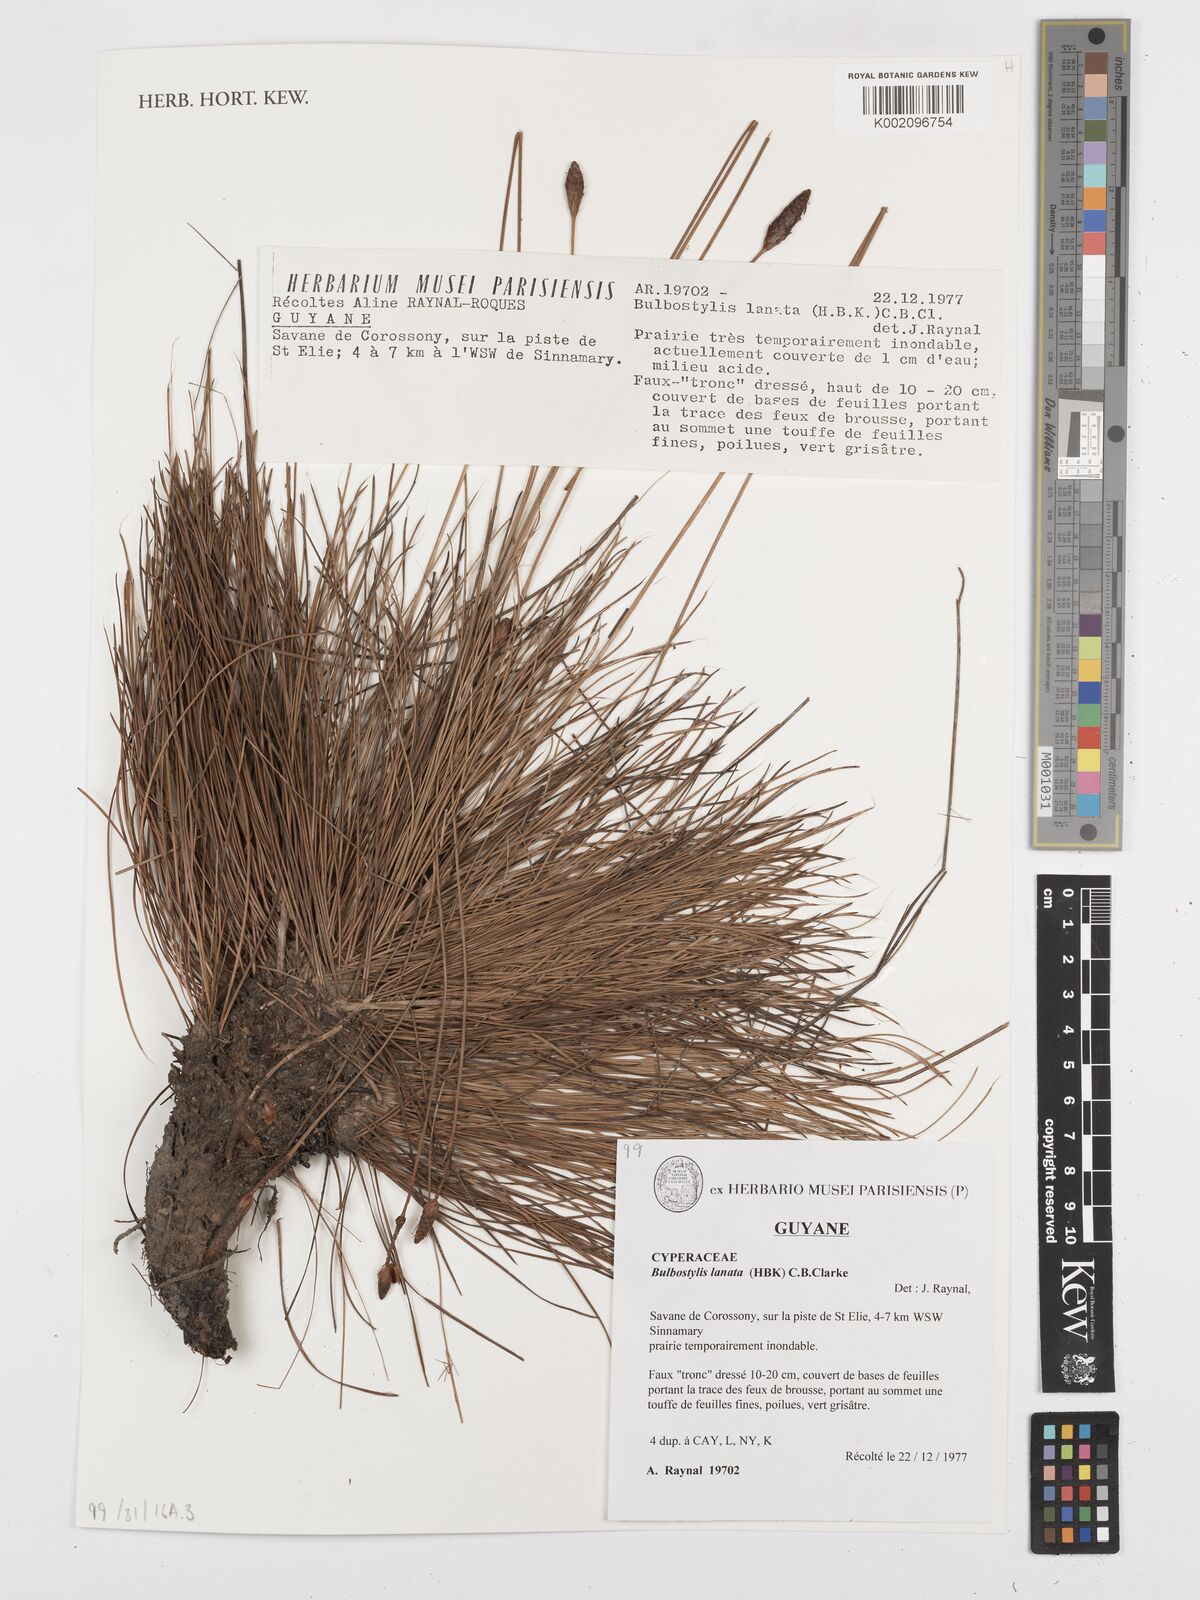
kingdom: Plantae
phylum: Tracheophyta
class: Liliopsida
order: Poales
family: Cyperaceae
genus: Bulbostylis
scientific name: Bulbostylis
